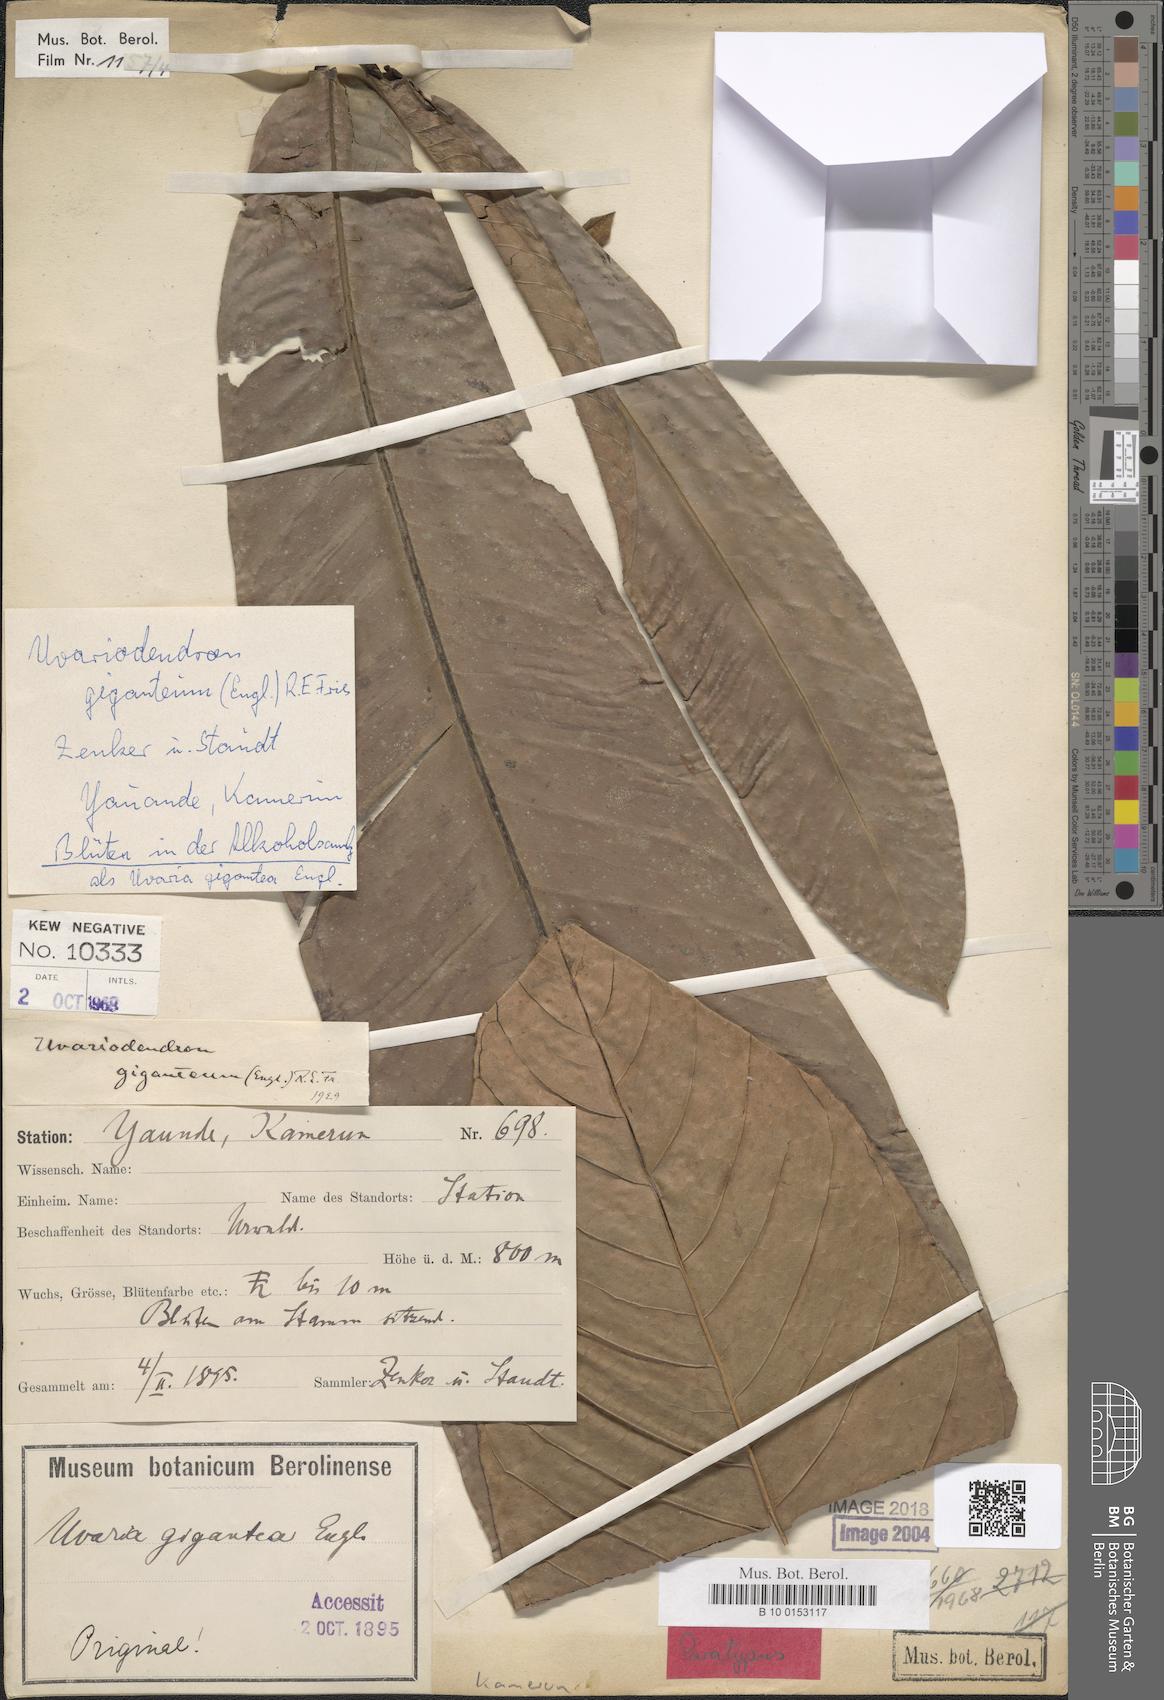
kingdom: Plantae
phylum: Tracheophyta
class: Magnoliopsida
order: Magnoliales
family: Annonaceae
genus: Uvariodendron
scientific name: Uvariodendron giganteum
